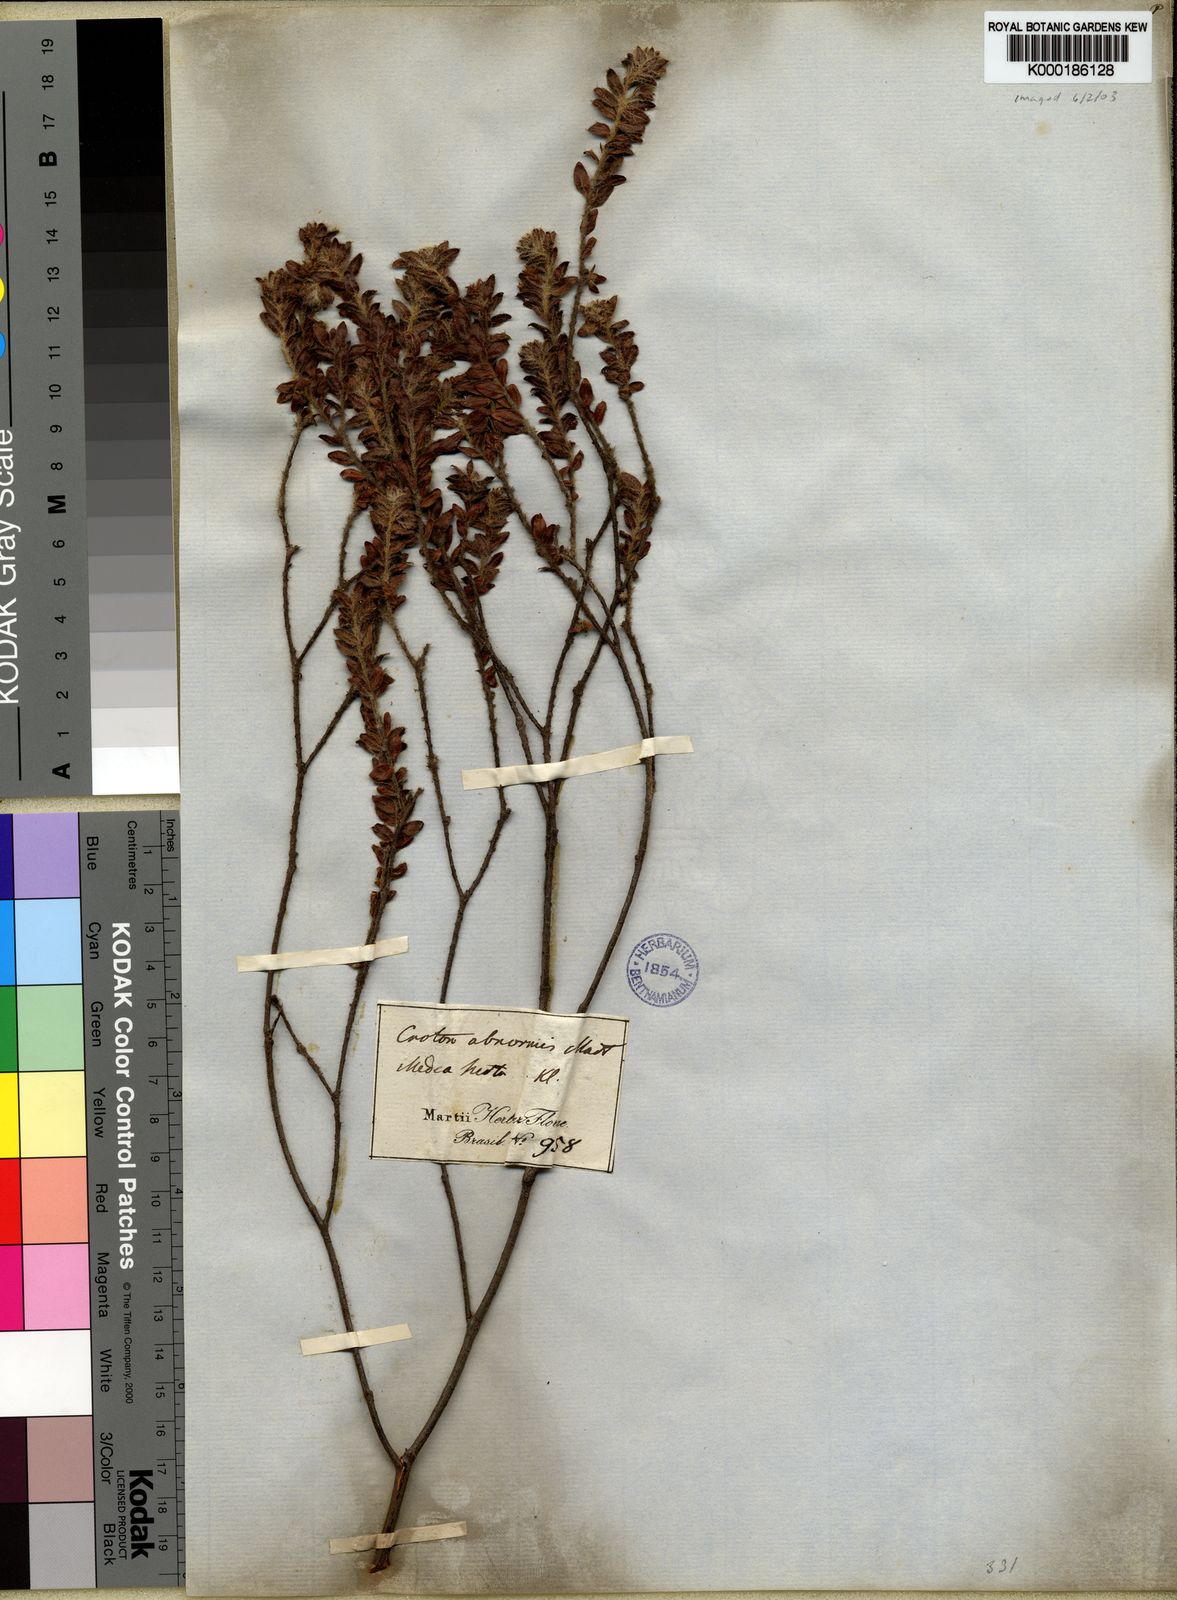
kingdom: Plantae
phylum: Tracheophyta
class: Magnoliopsida
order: Malpighiales
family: Euphorbiaceae
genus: Croton
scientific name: Croton
